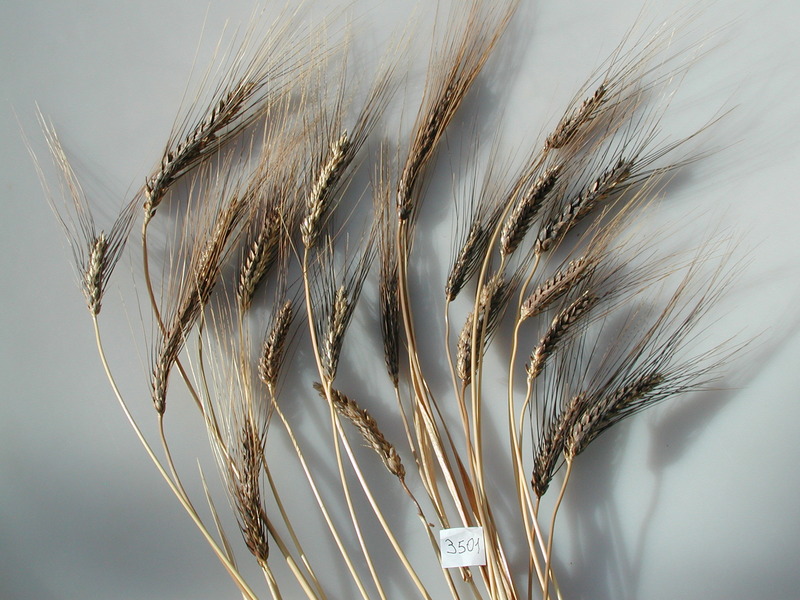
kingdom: Plantae
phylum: Tracheophyta
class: Liliopsida
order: Poales
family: Poaceae
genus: Triticum
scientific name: Triticum turgidum
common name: Wheat
